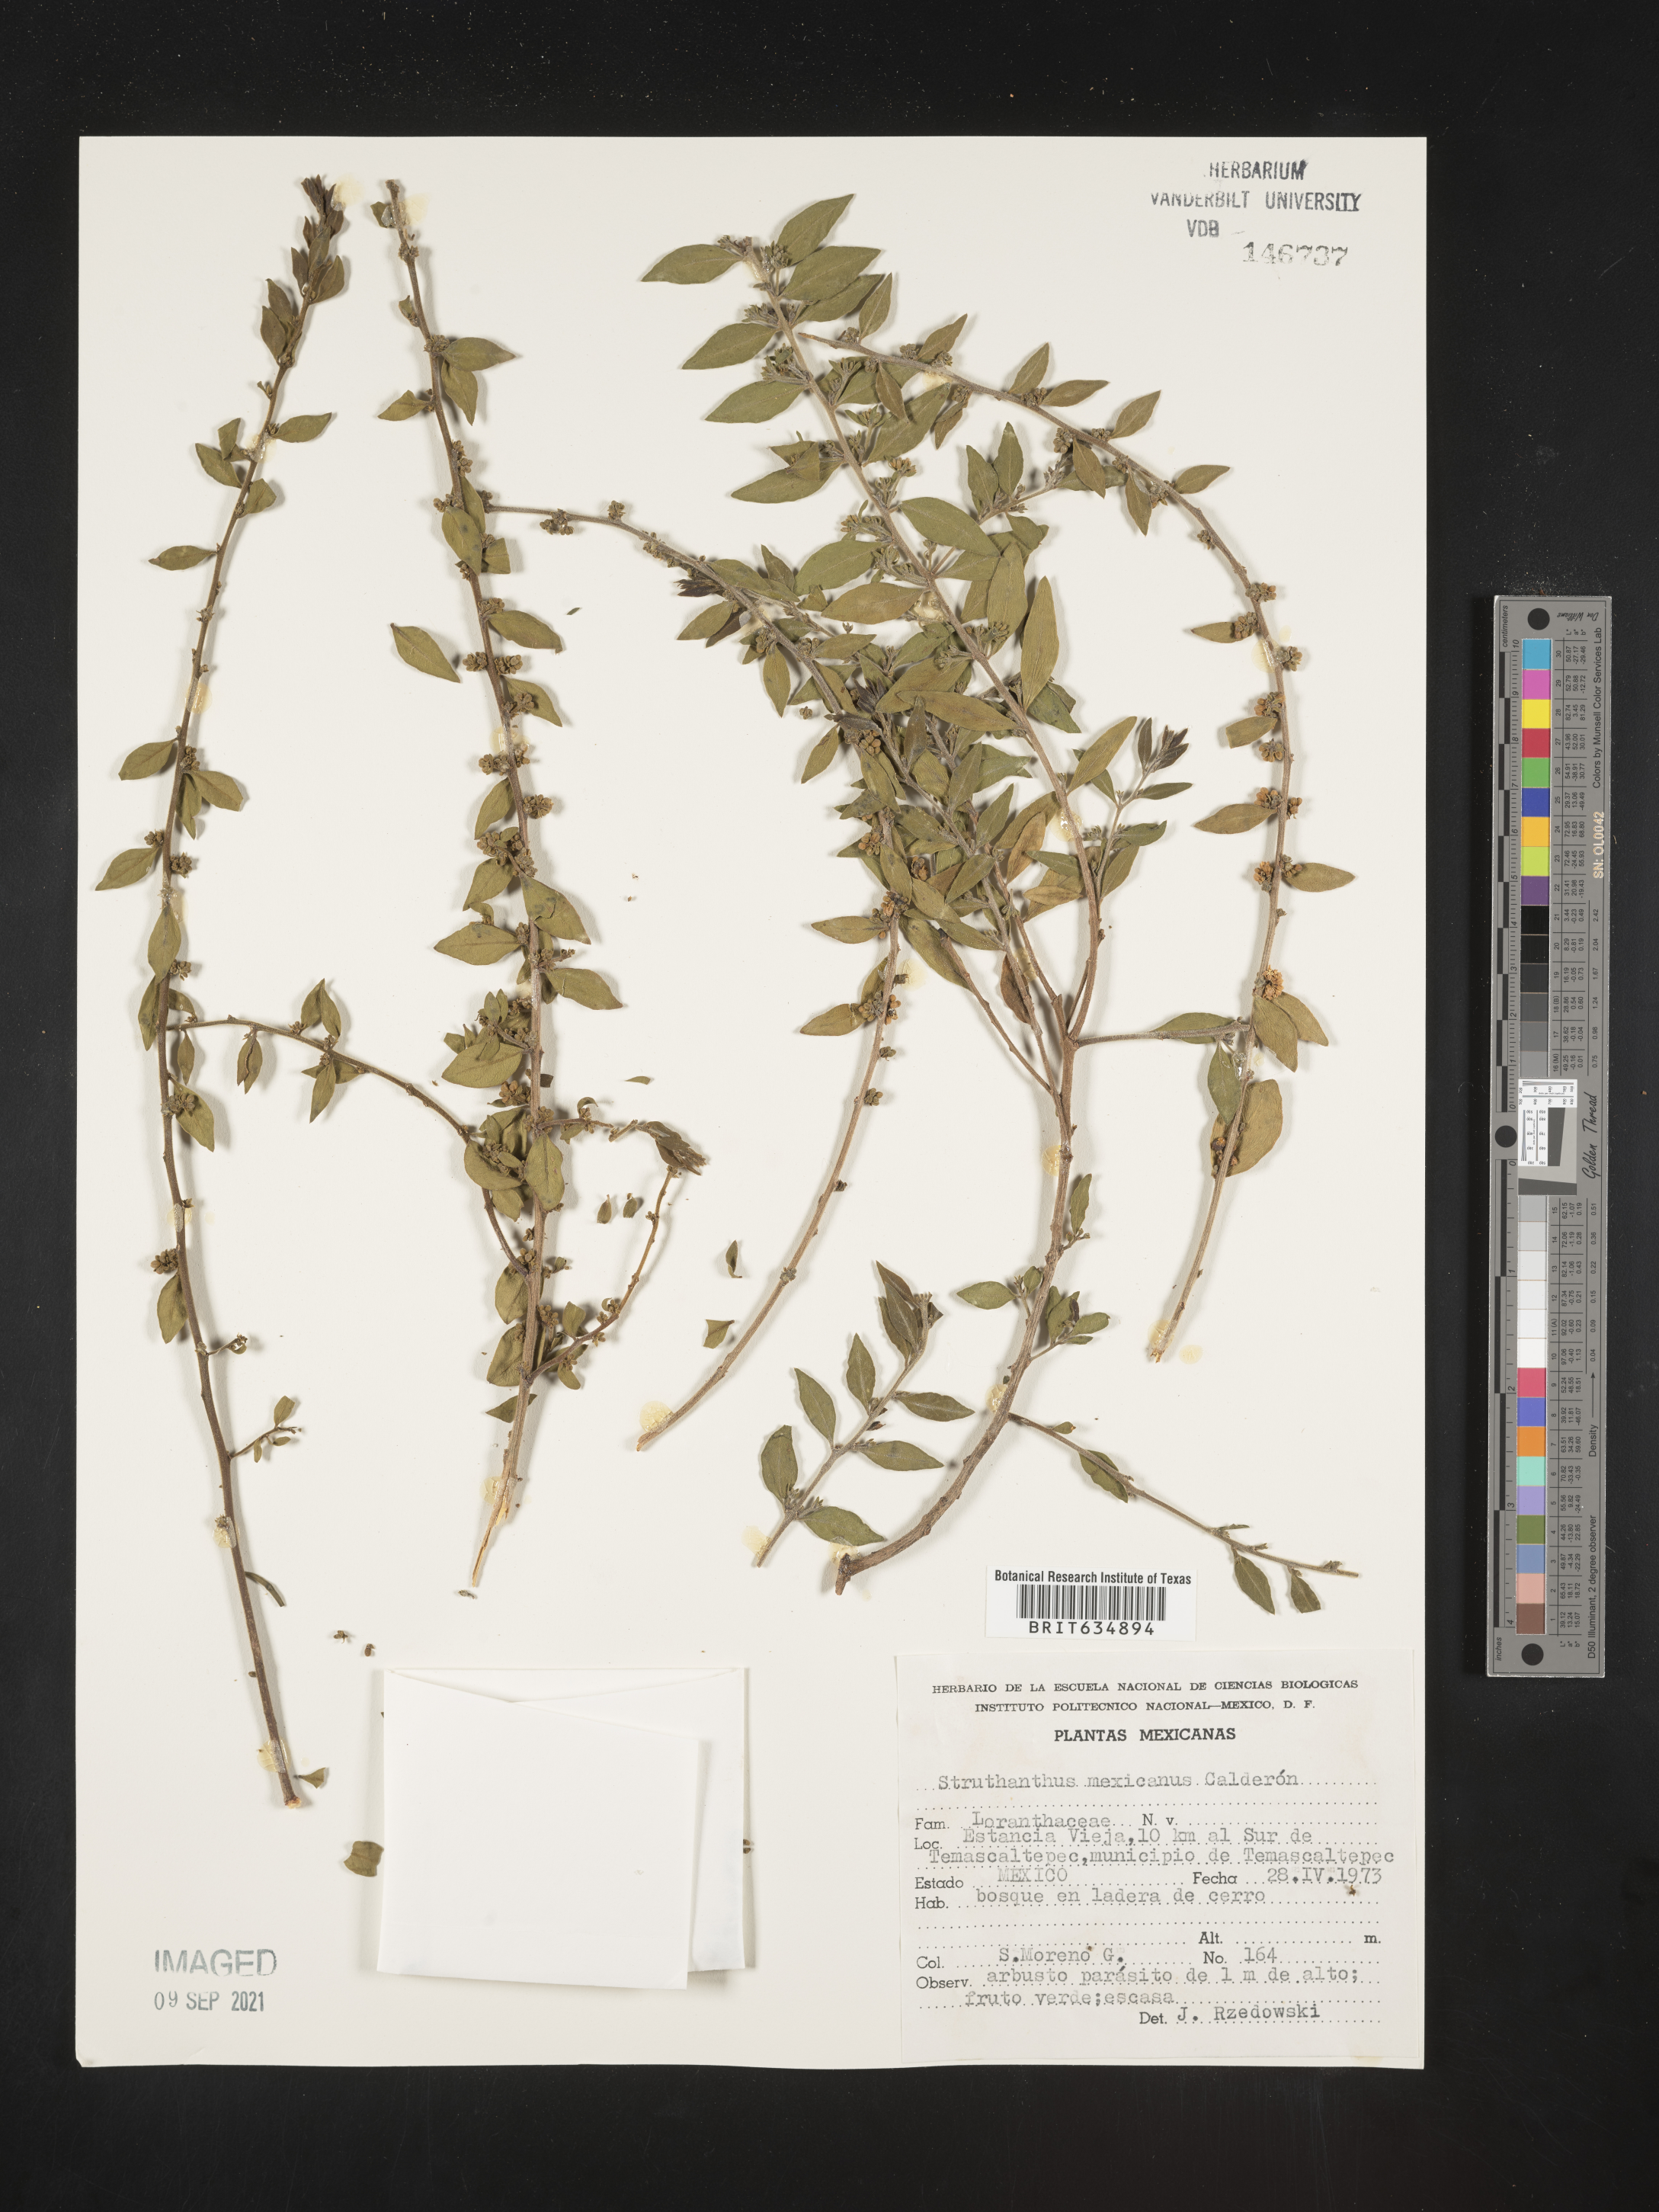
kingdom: Plantae
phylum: Tracheophyta
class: Magnoliopsida
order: Santalales
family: Loranthaceae
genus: Struthanthus
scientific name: Struthanthus
